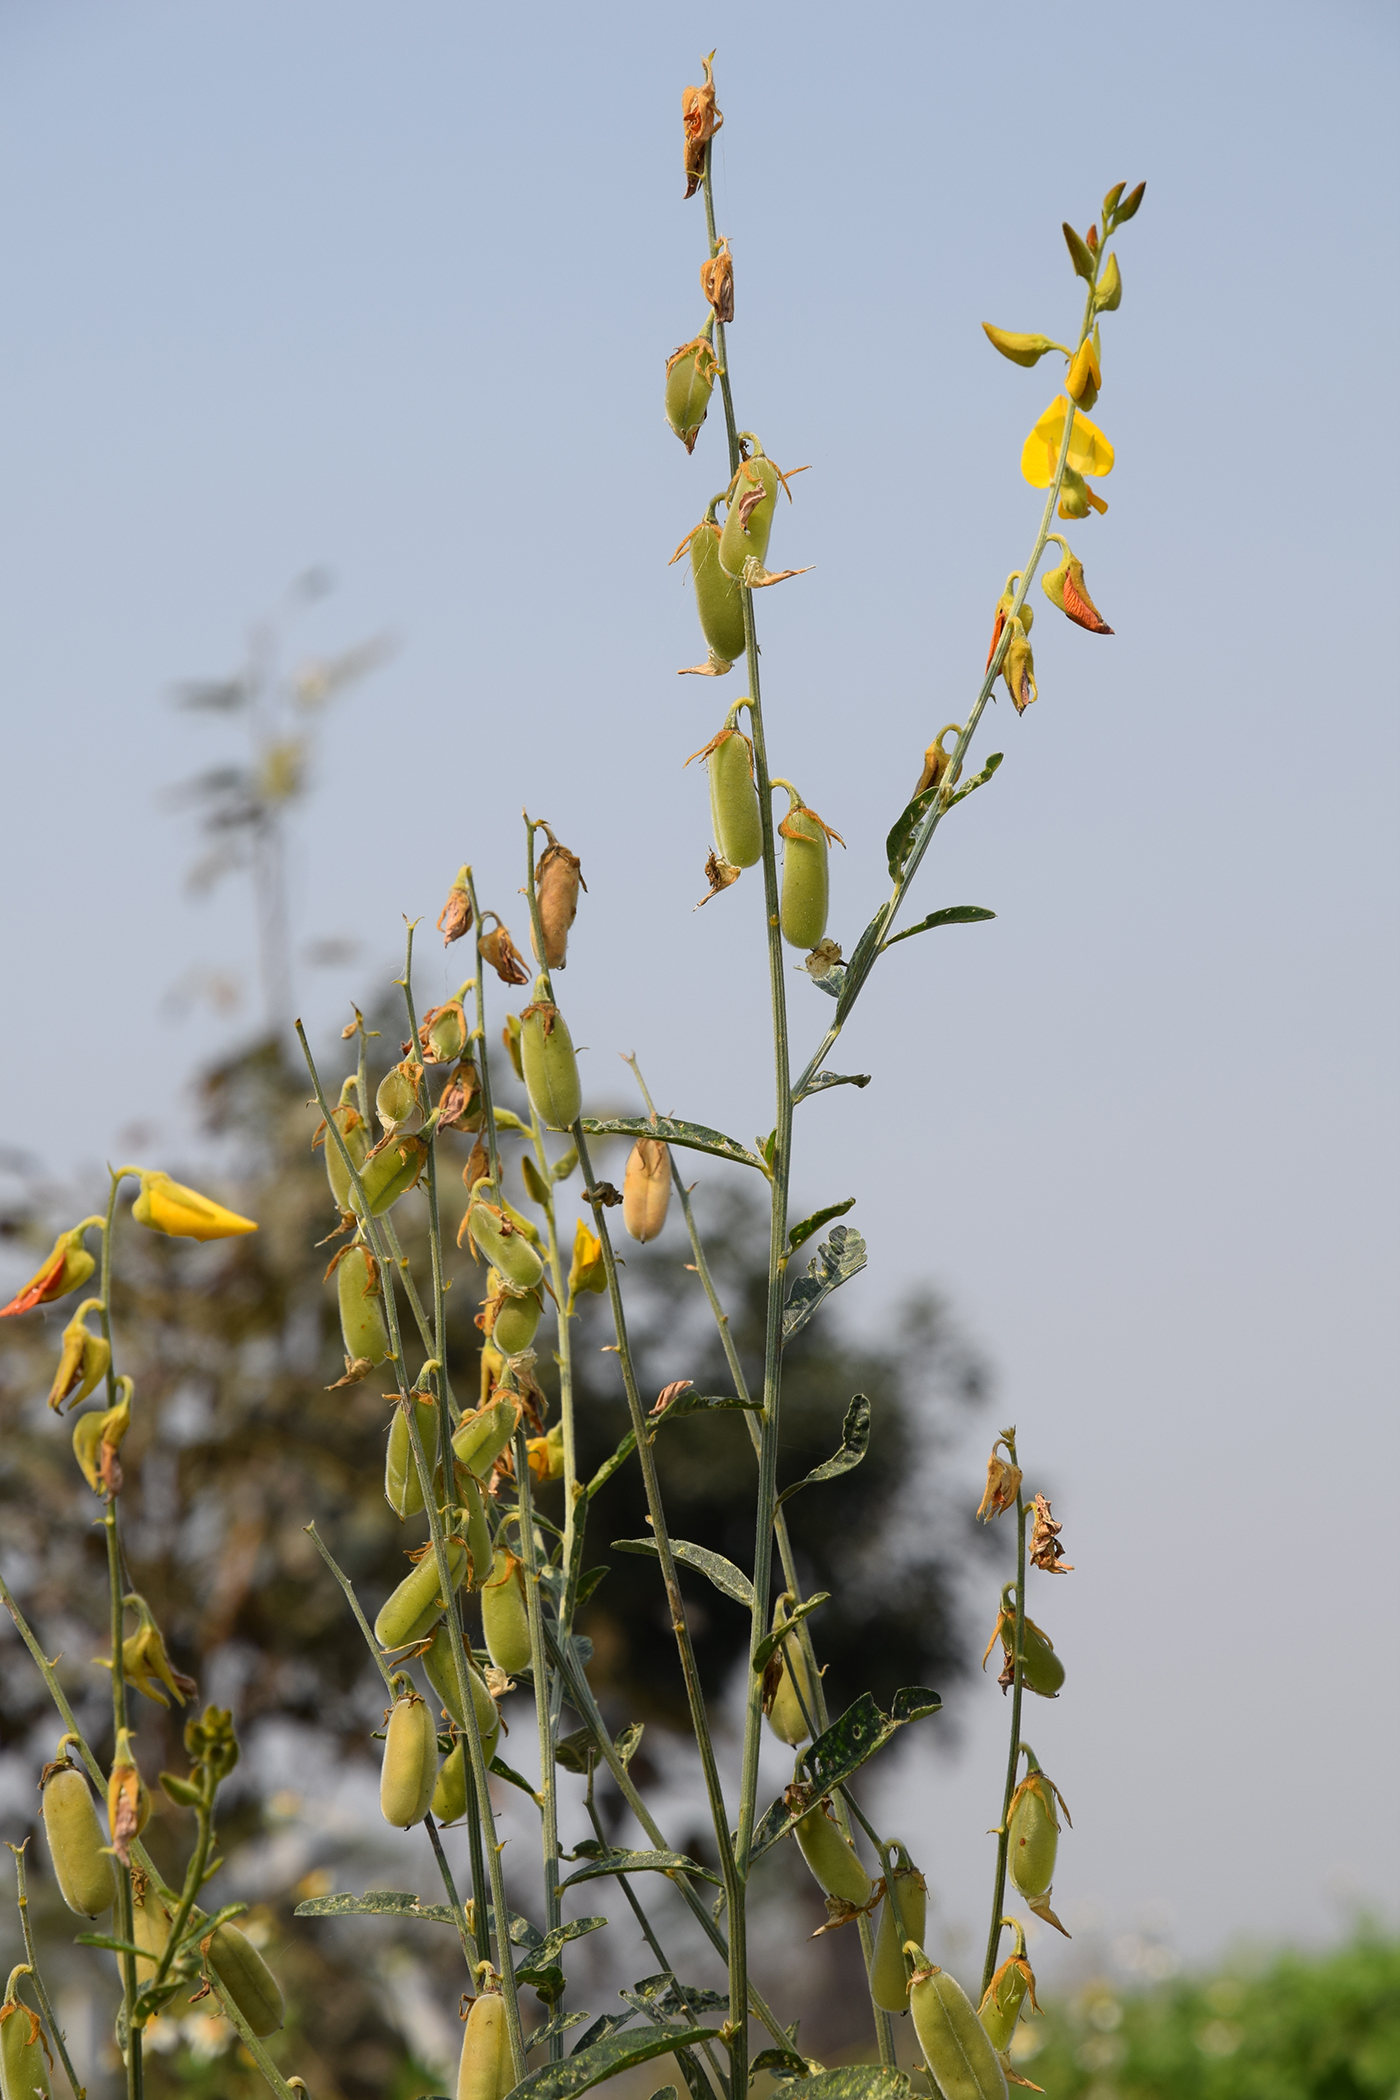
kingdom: Plantae
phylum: Tracheophyta
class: Magnoliopsida
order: Fabales
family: Fabaceae
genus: Crotalaria
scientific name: Crotalaria juncea
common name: Sunn hemp
